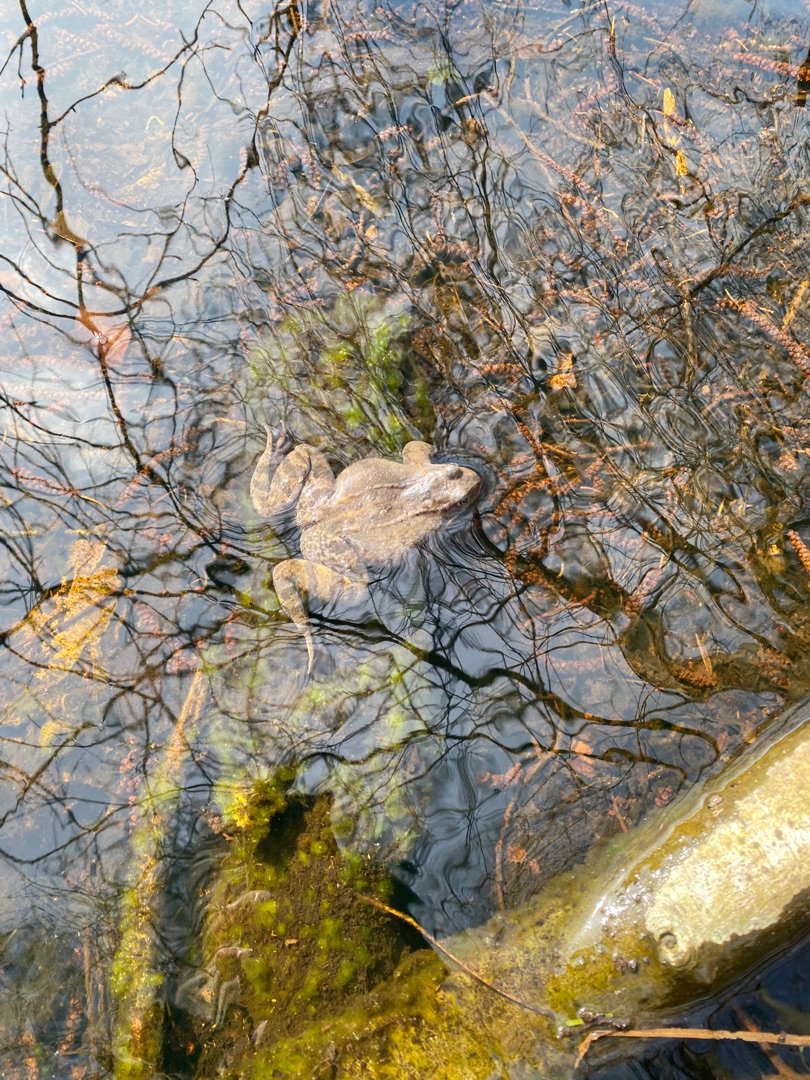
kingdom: Animalia
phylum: Chordata
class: Amphibia
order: Anura
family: Ranidae
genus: Rana
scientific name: Rana temporaria
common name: Butsnudet frø
